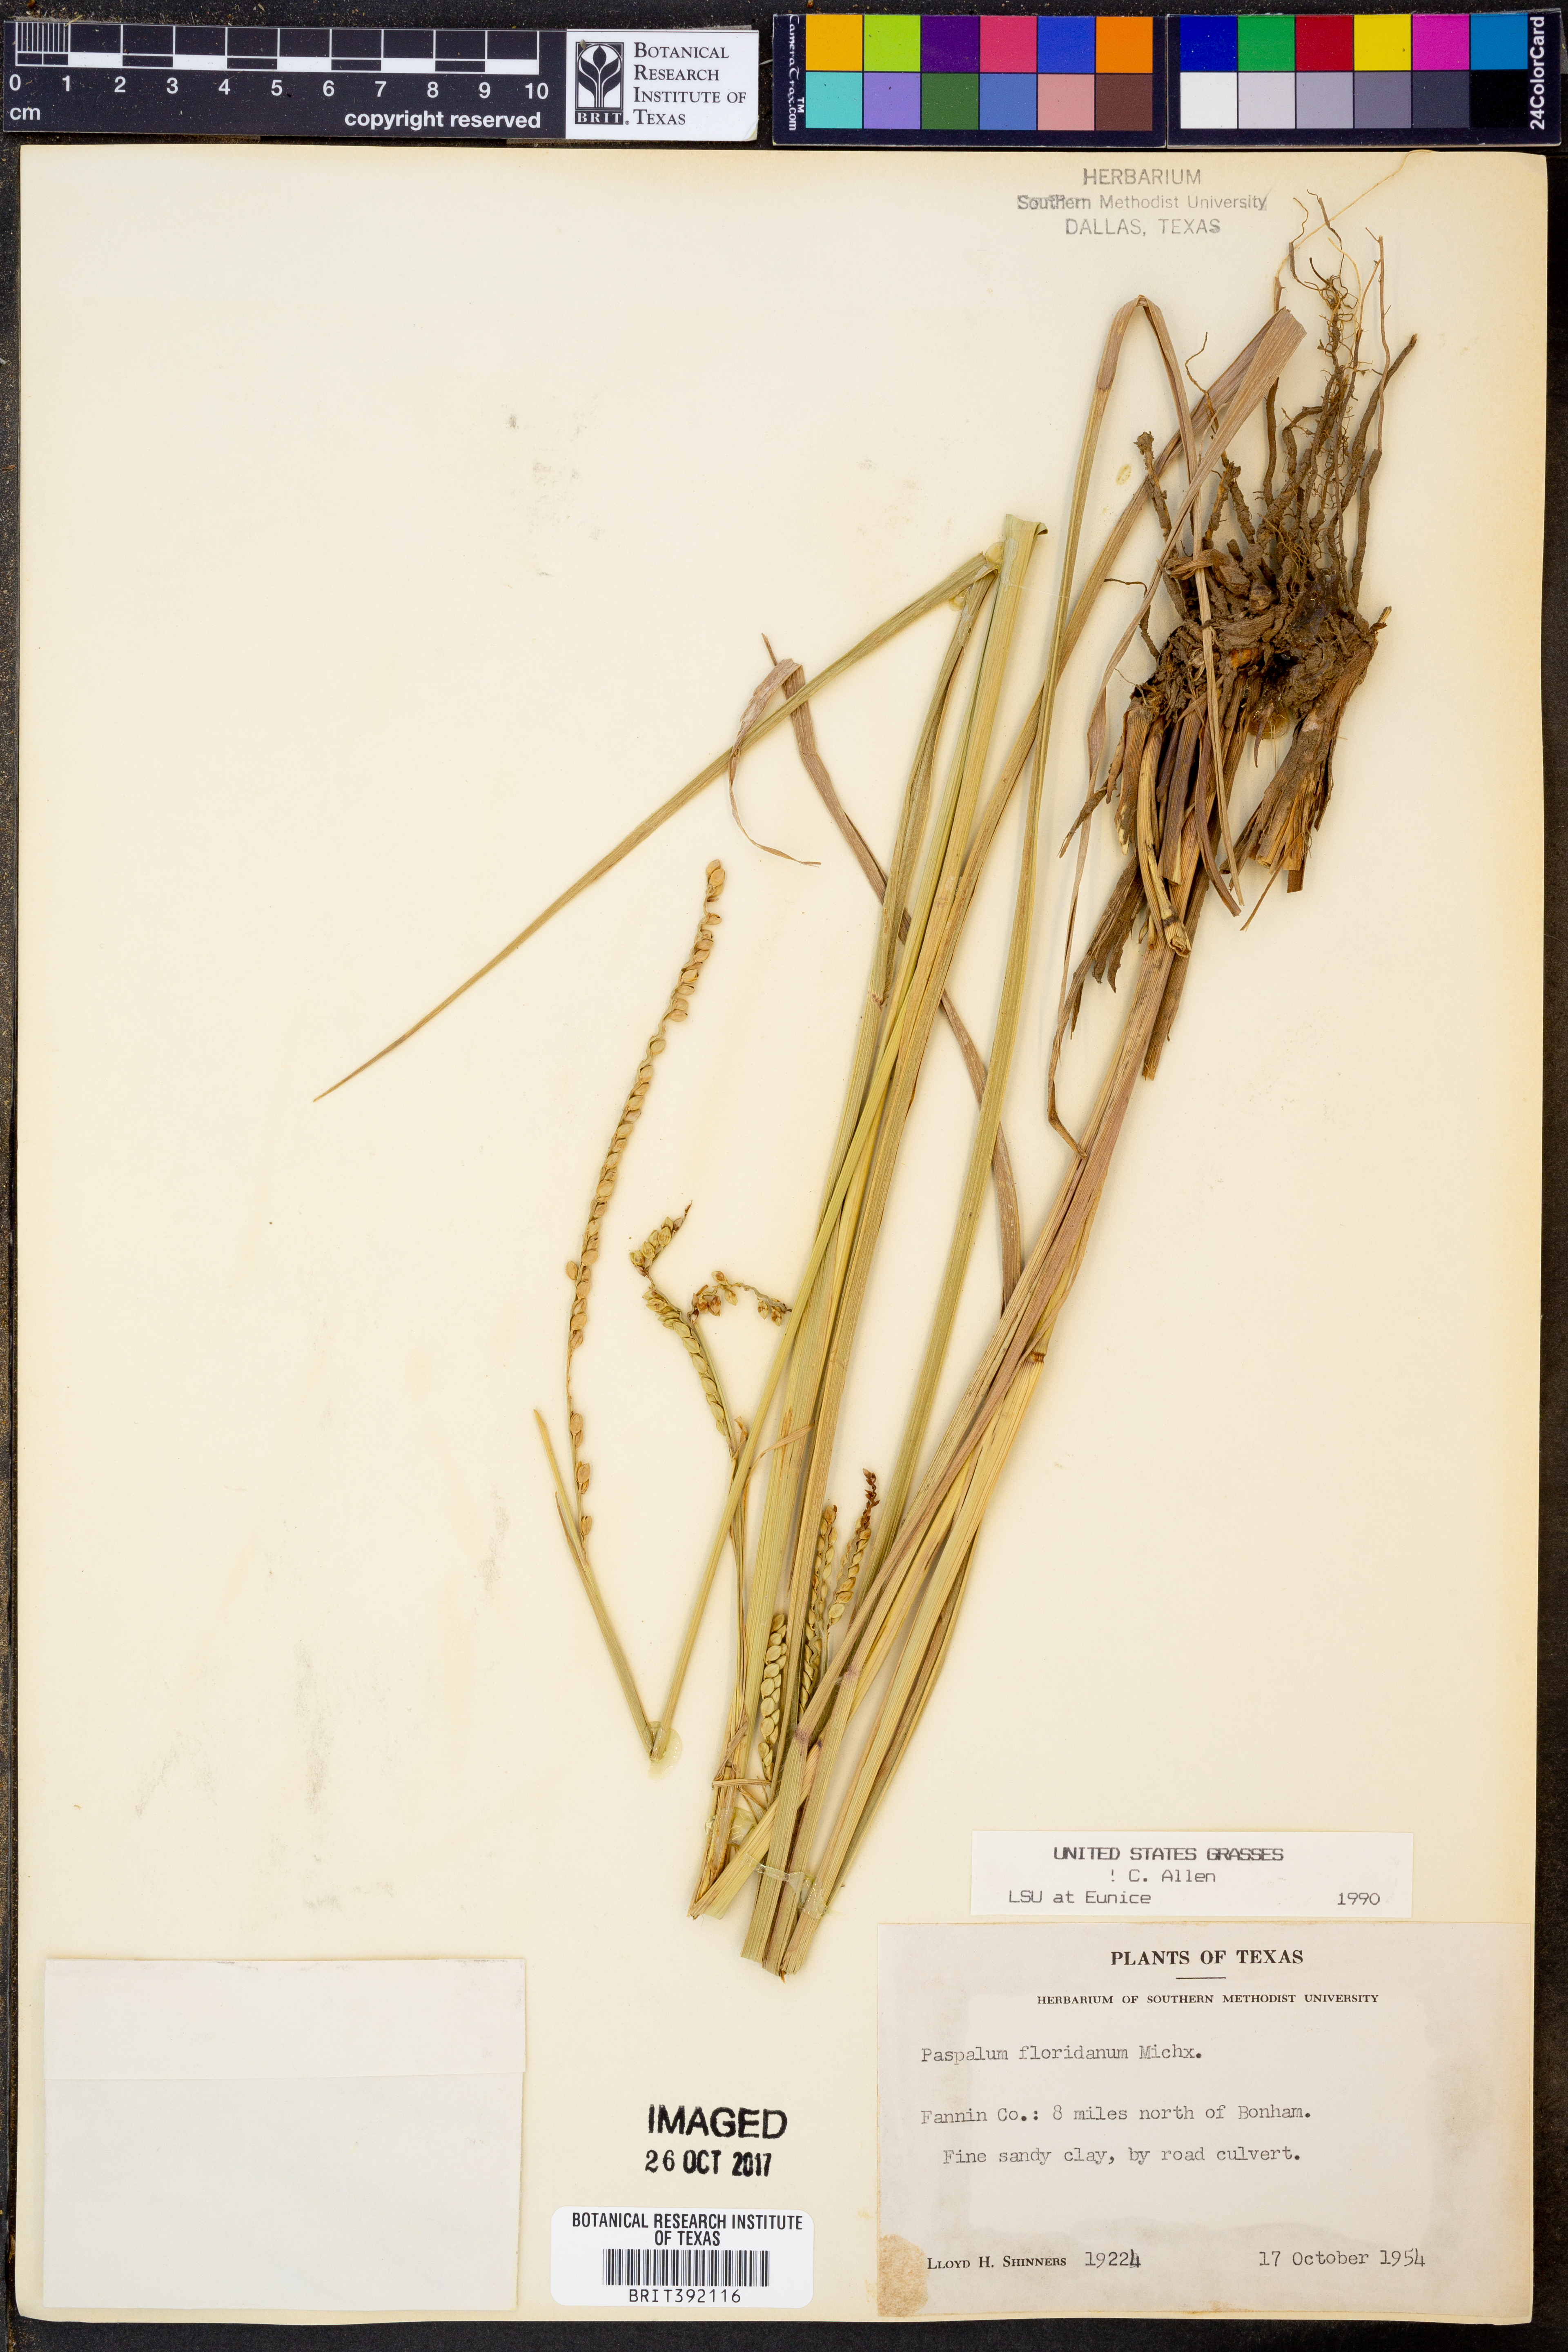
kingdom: Plantae
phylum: Tracheophyta
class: Liliopsida
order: Poales
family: Poaceae
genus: Paspalum
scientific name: Paspalum floridanum
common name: Florida paspalum
